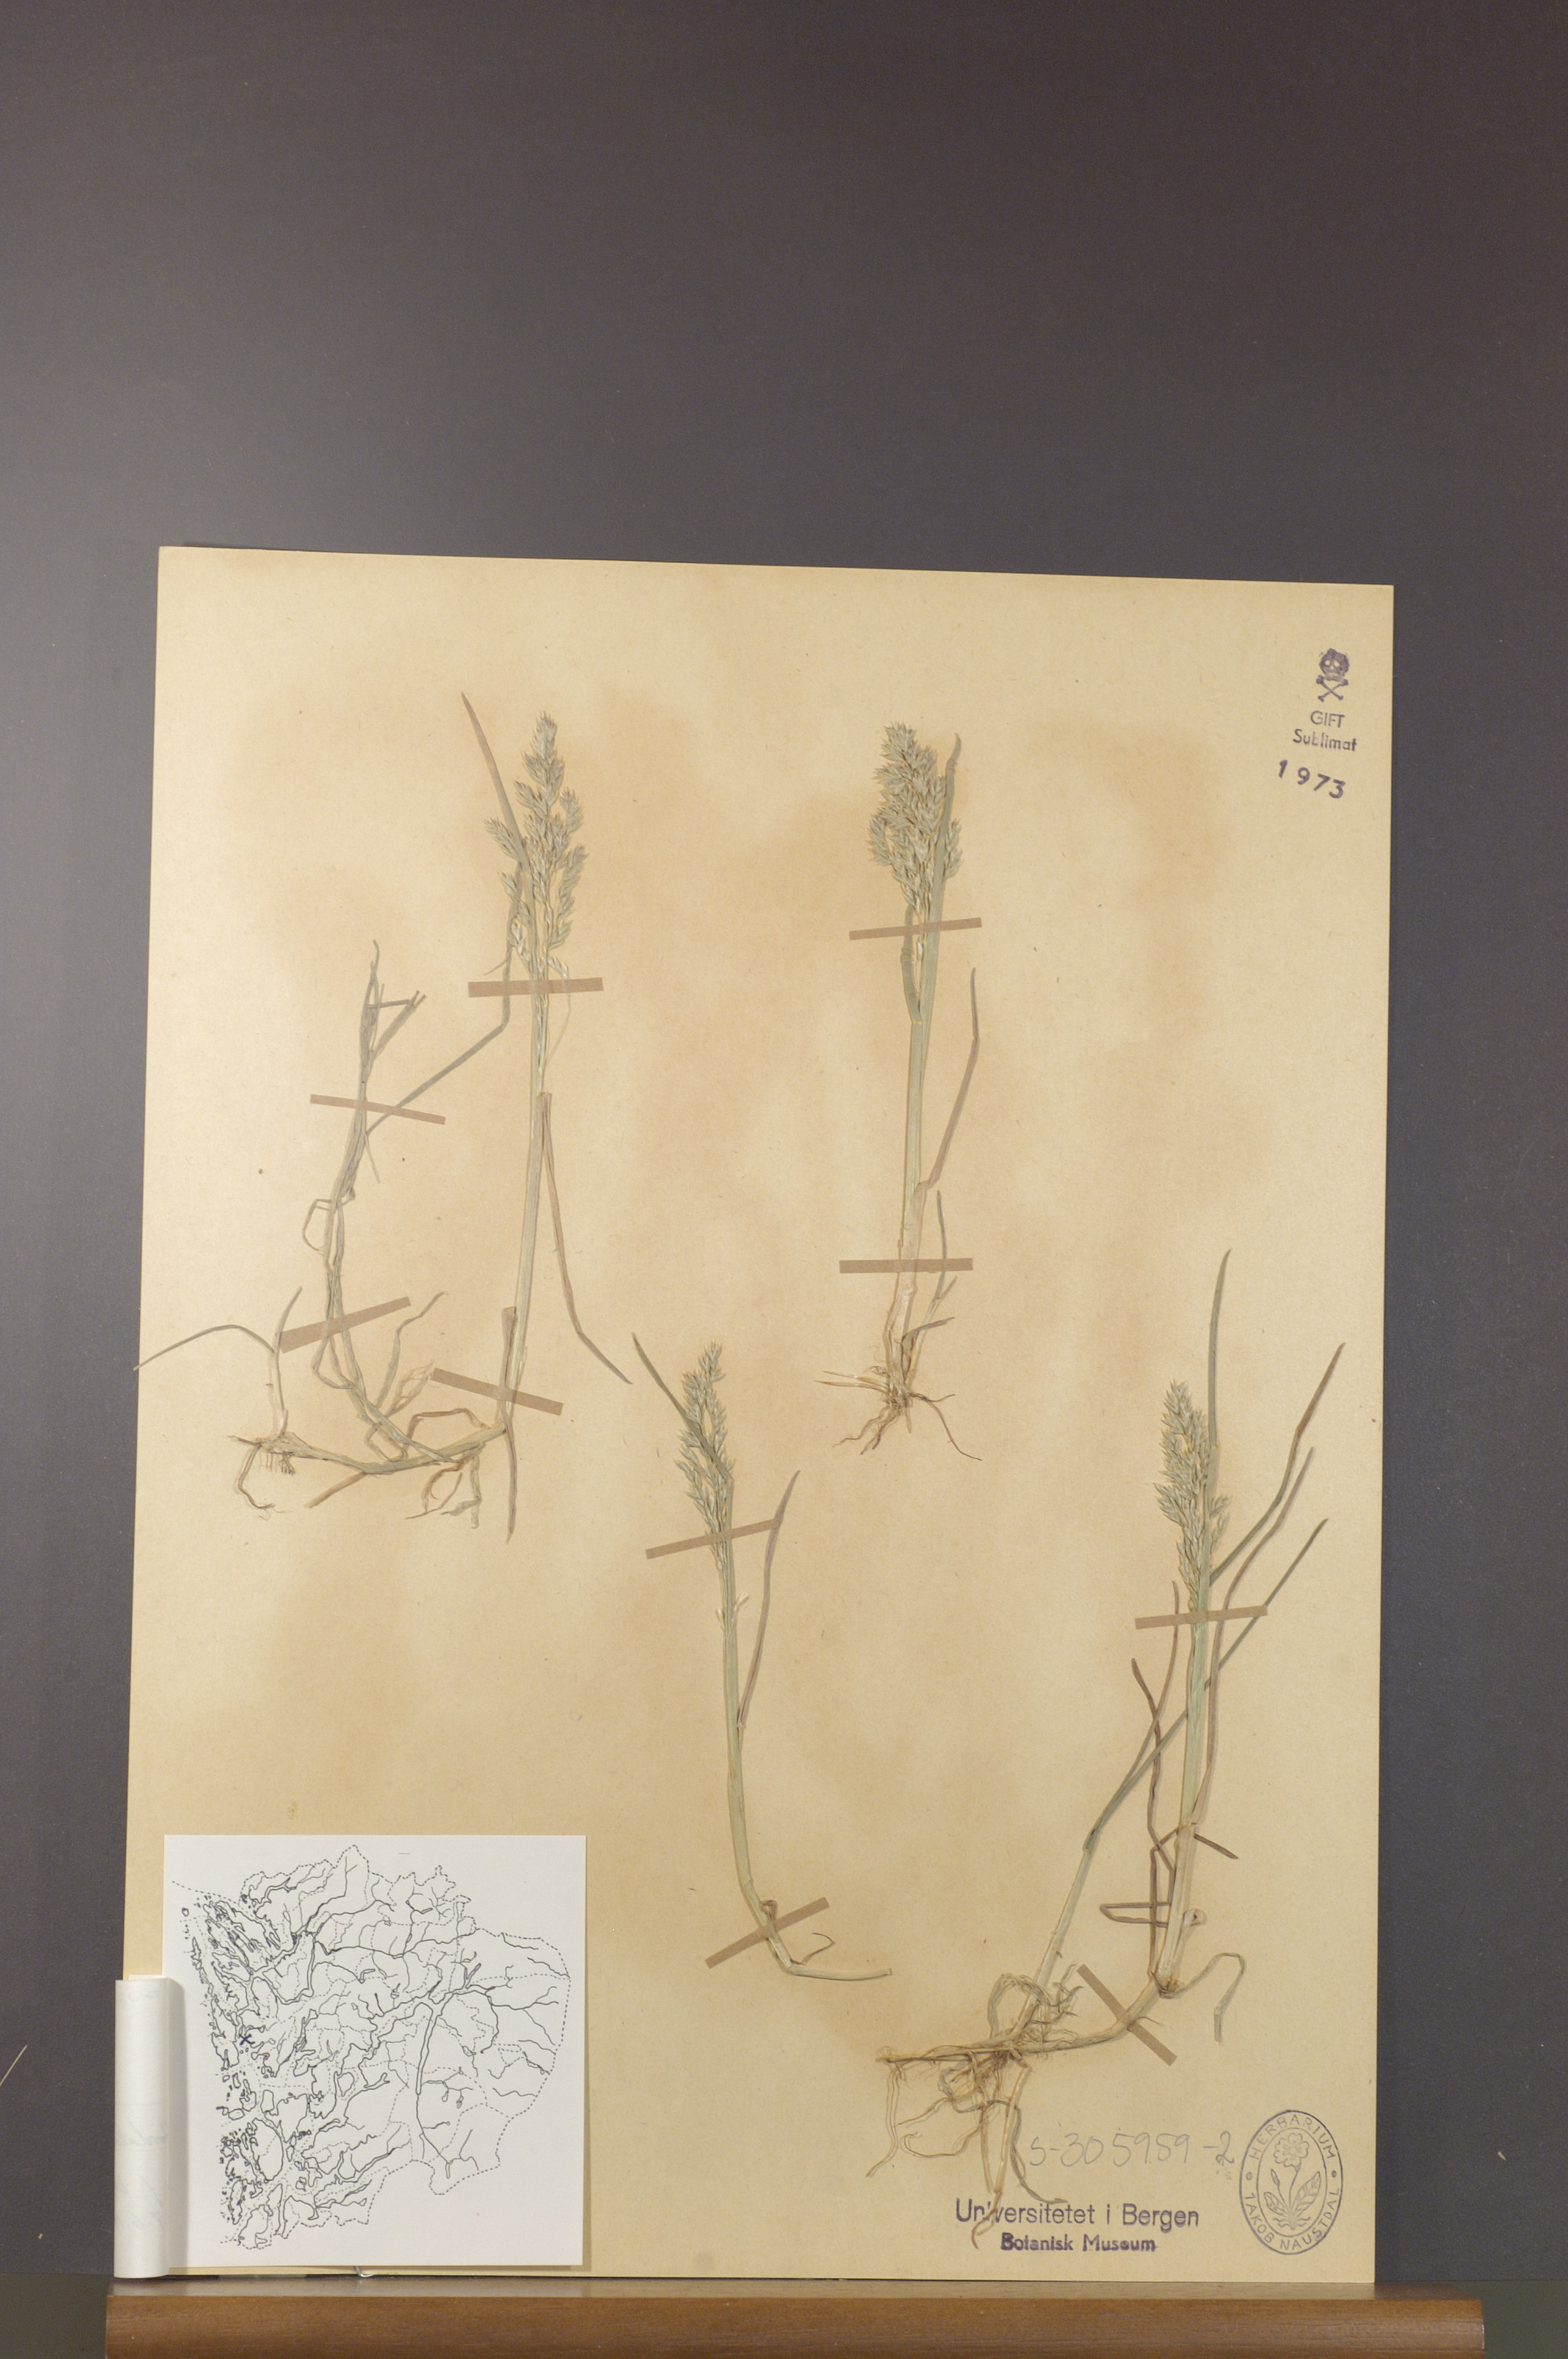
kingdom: Plantae
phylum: Tracheophyta
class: Liliopsida
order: Poales
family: Poaceae
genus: Poa
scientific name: Poa humilis
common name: Spreading meadow-grass
